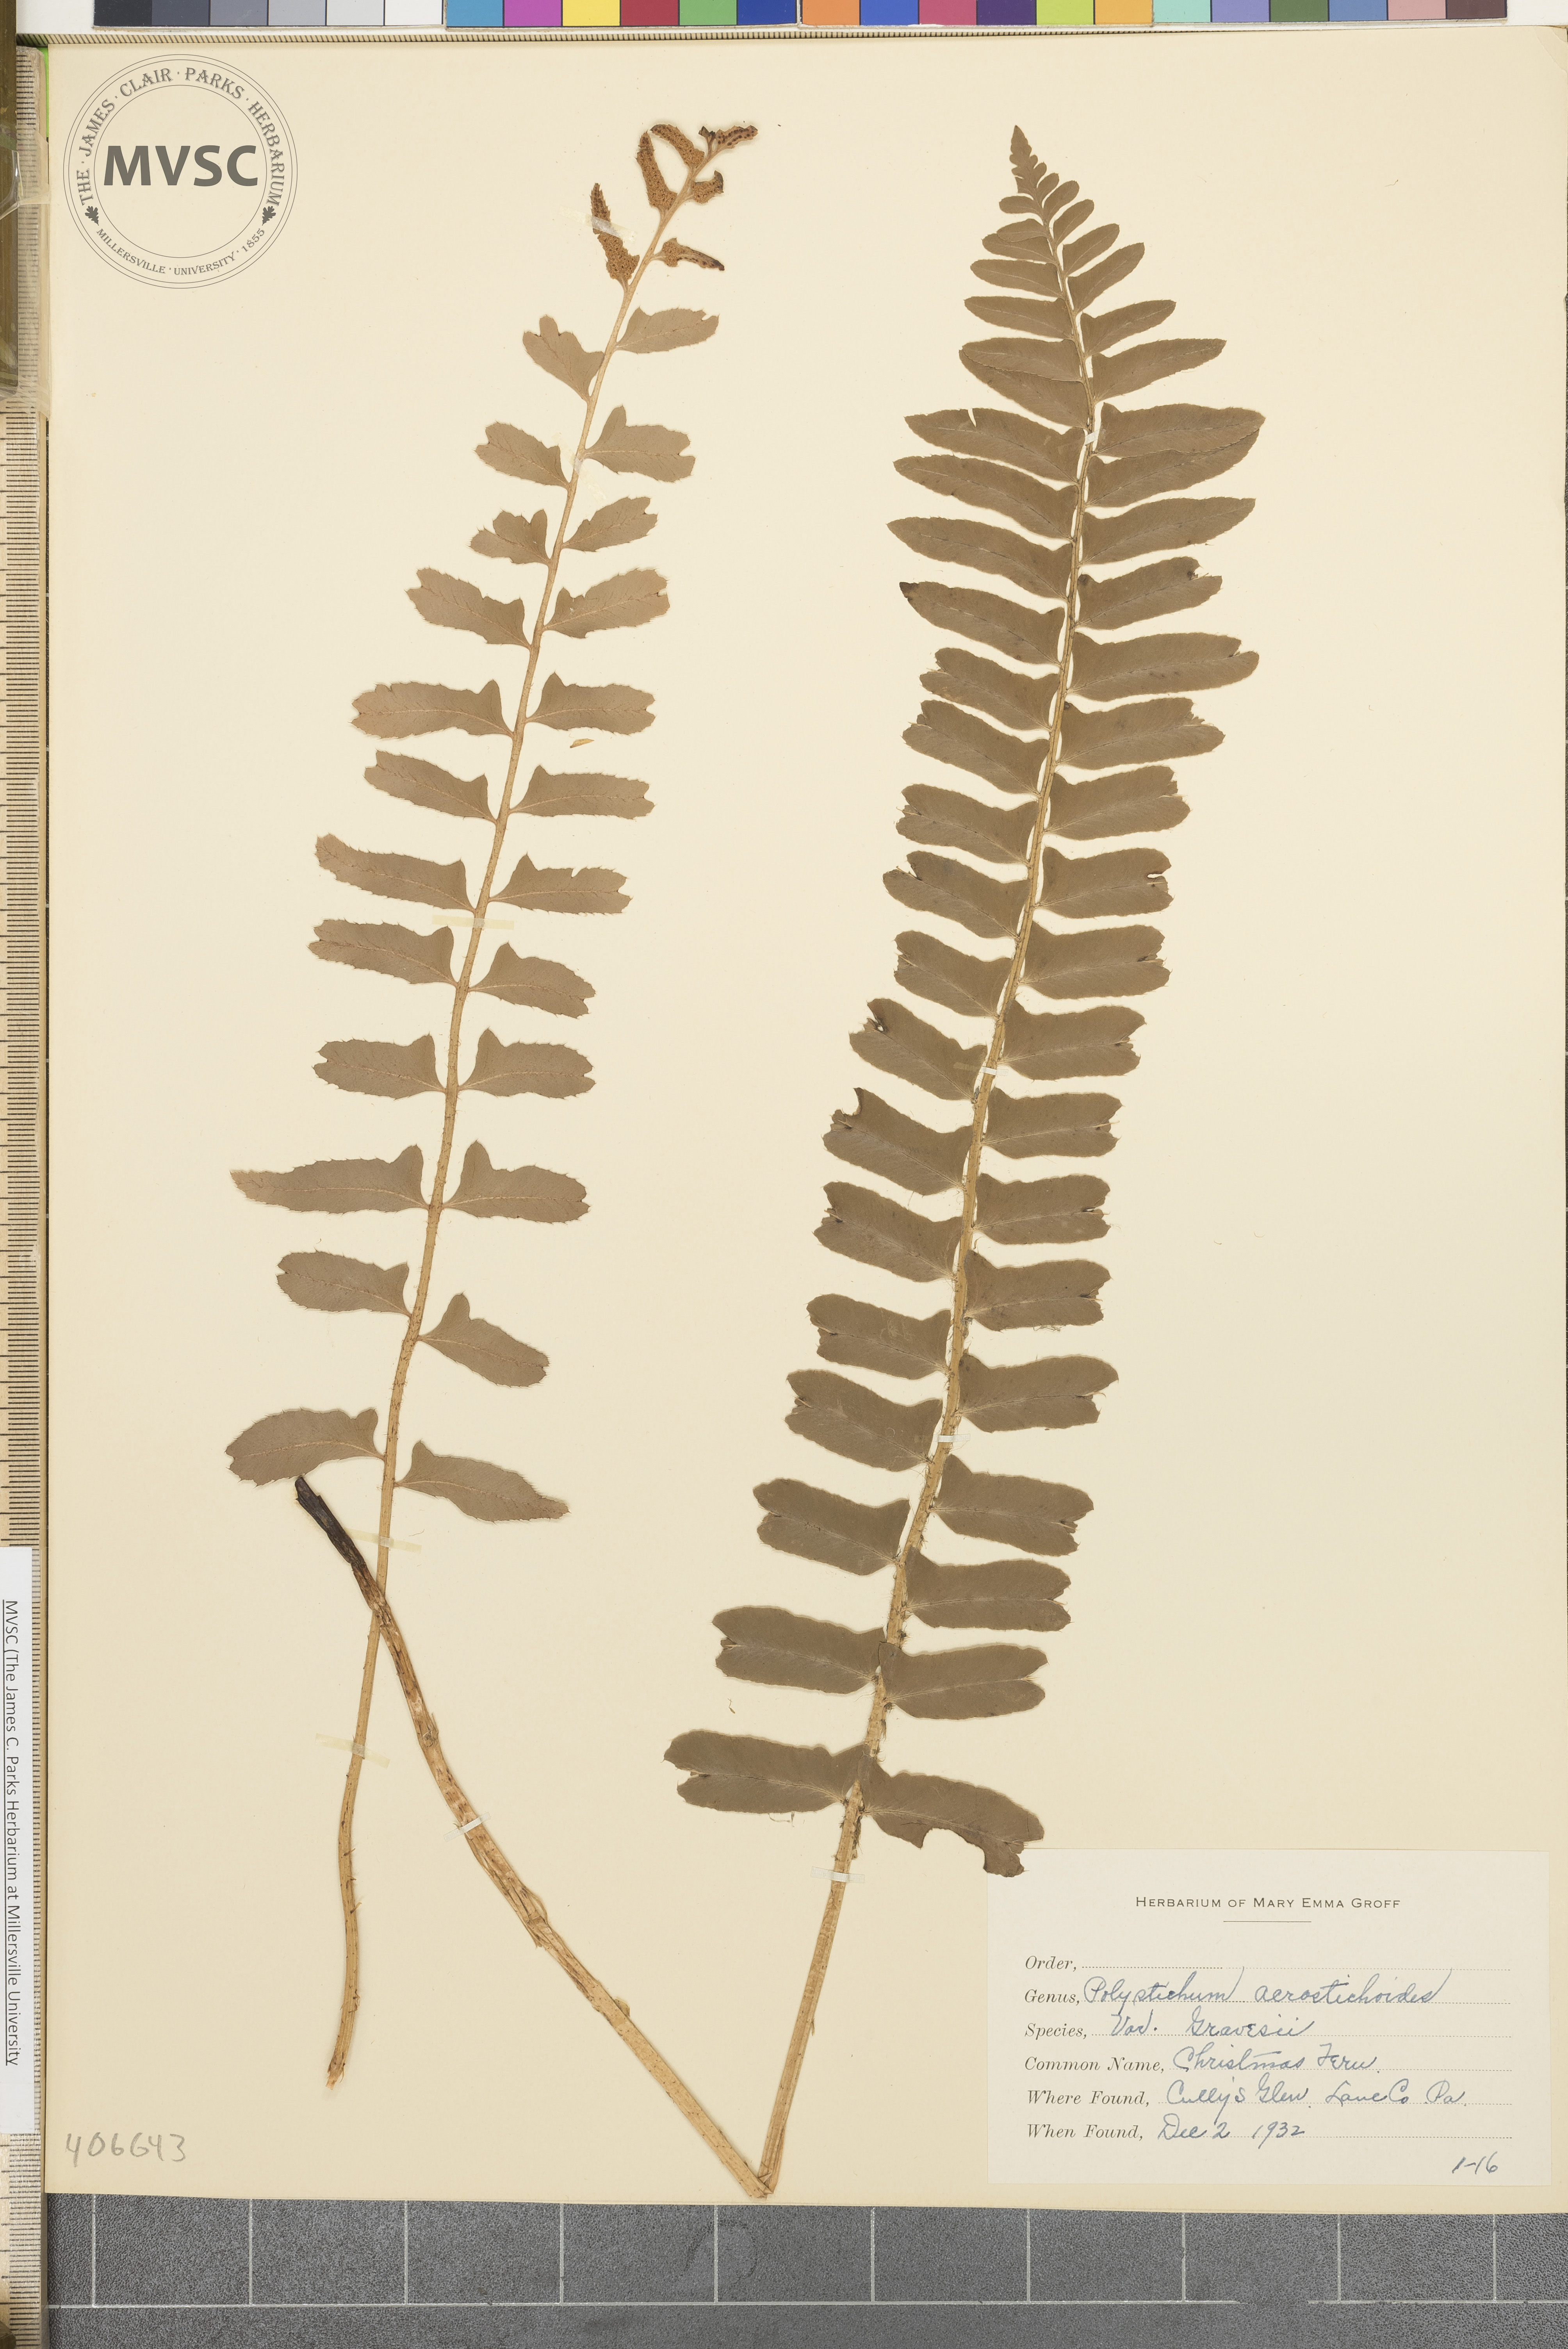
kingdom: Plantae
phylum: Tracheophyta
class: Polypodiopsida
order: Polypodiales
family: Dryopteridaceae
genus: Polystichum
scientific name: Polystichum acrostichoides
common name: Christmas fern
